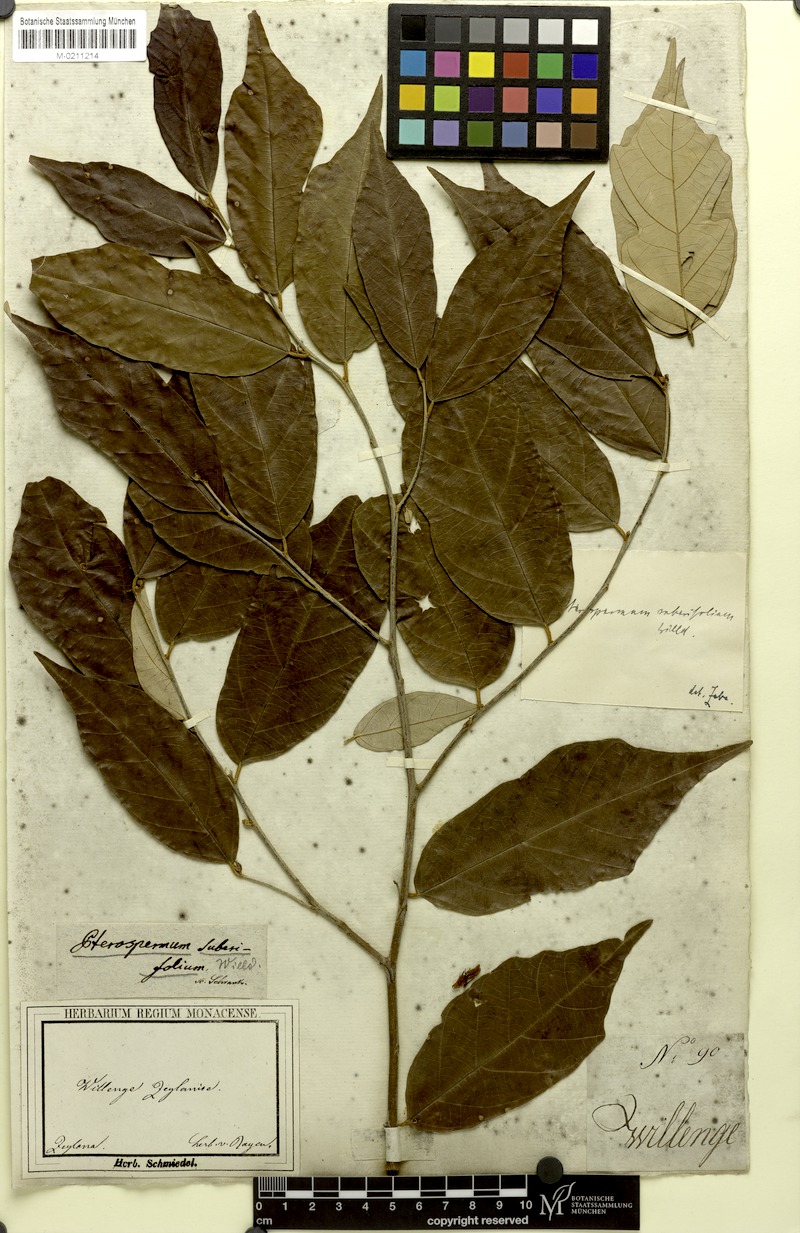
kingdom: Plantae
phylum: Tracheophyta
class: Magnoliopsida
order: Malvales
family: Malvaceae
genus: Pterospermum
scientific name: Pterospermum suberifolium
